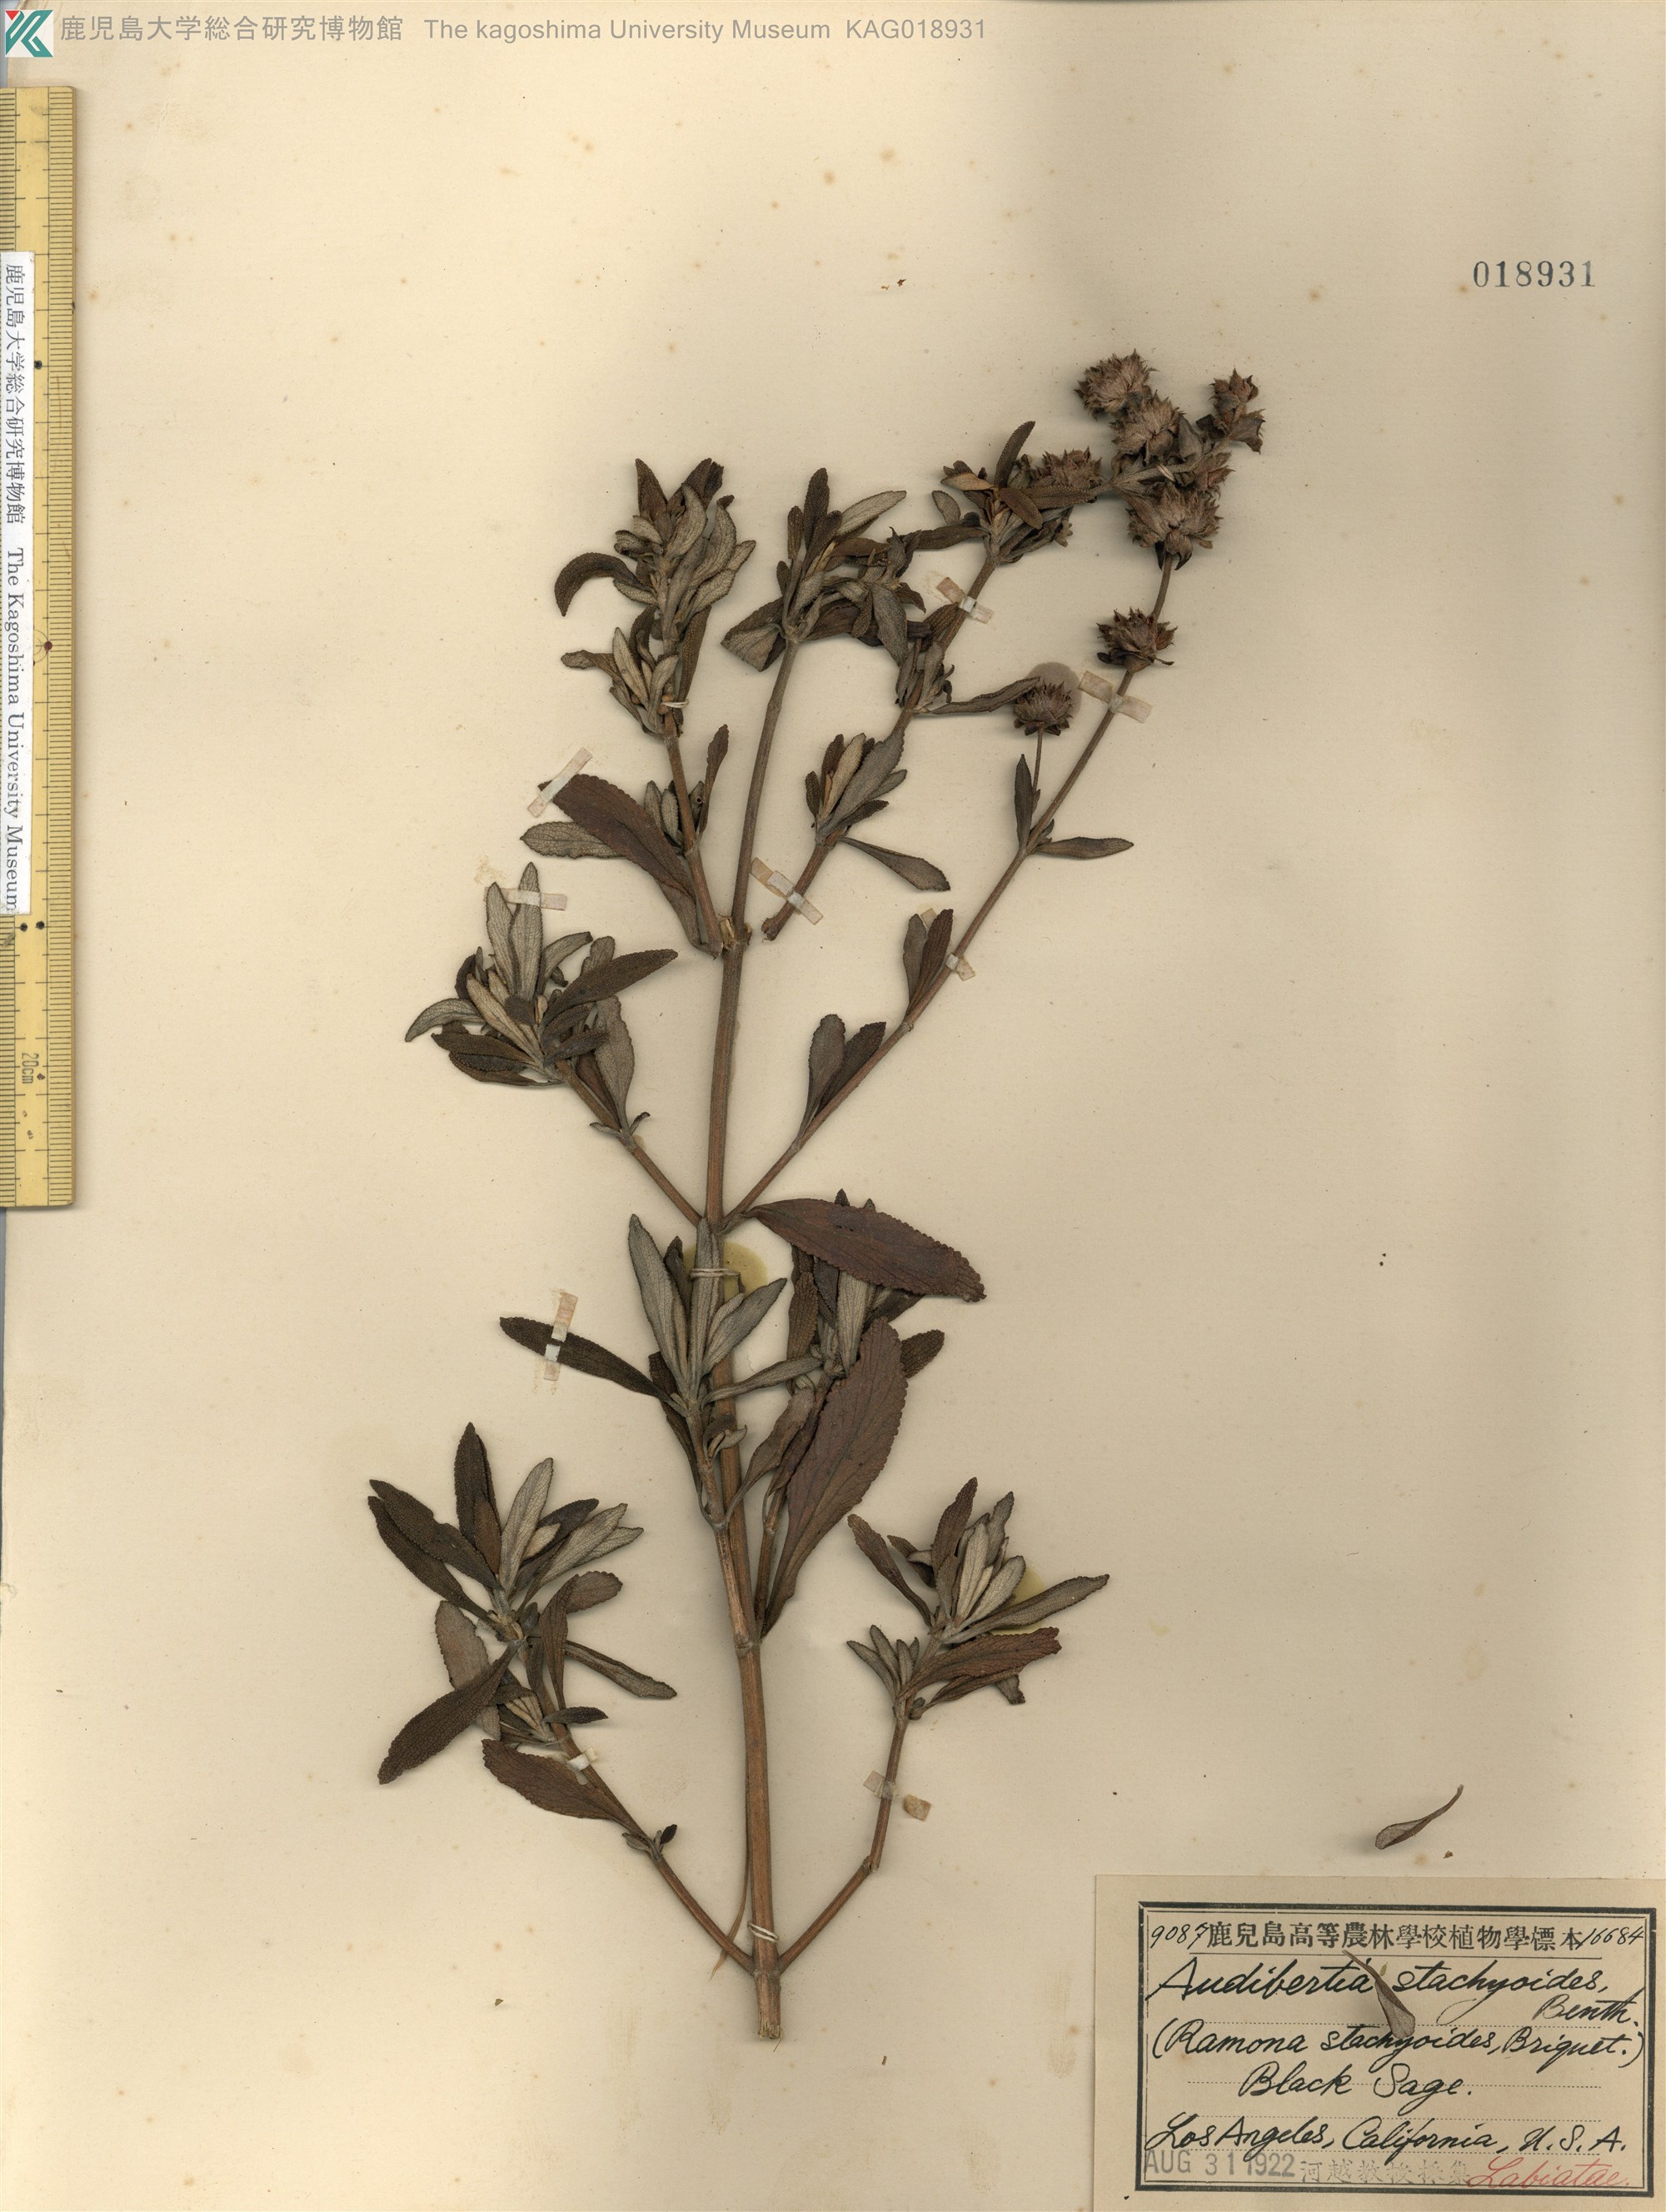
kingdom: Plantae
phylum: Tracheophyta
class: Magnoliopsida
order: Lamiales
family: Lamiaceae
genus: Salvia
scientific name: Salvia mellifera
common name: Black sage
